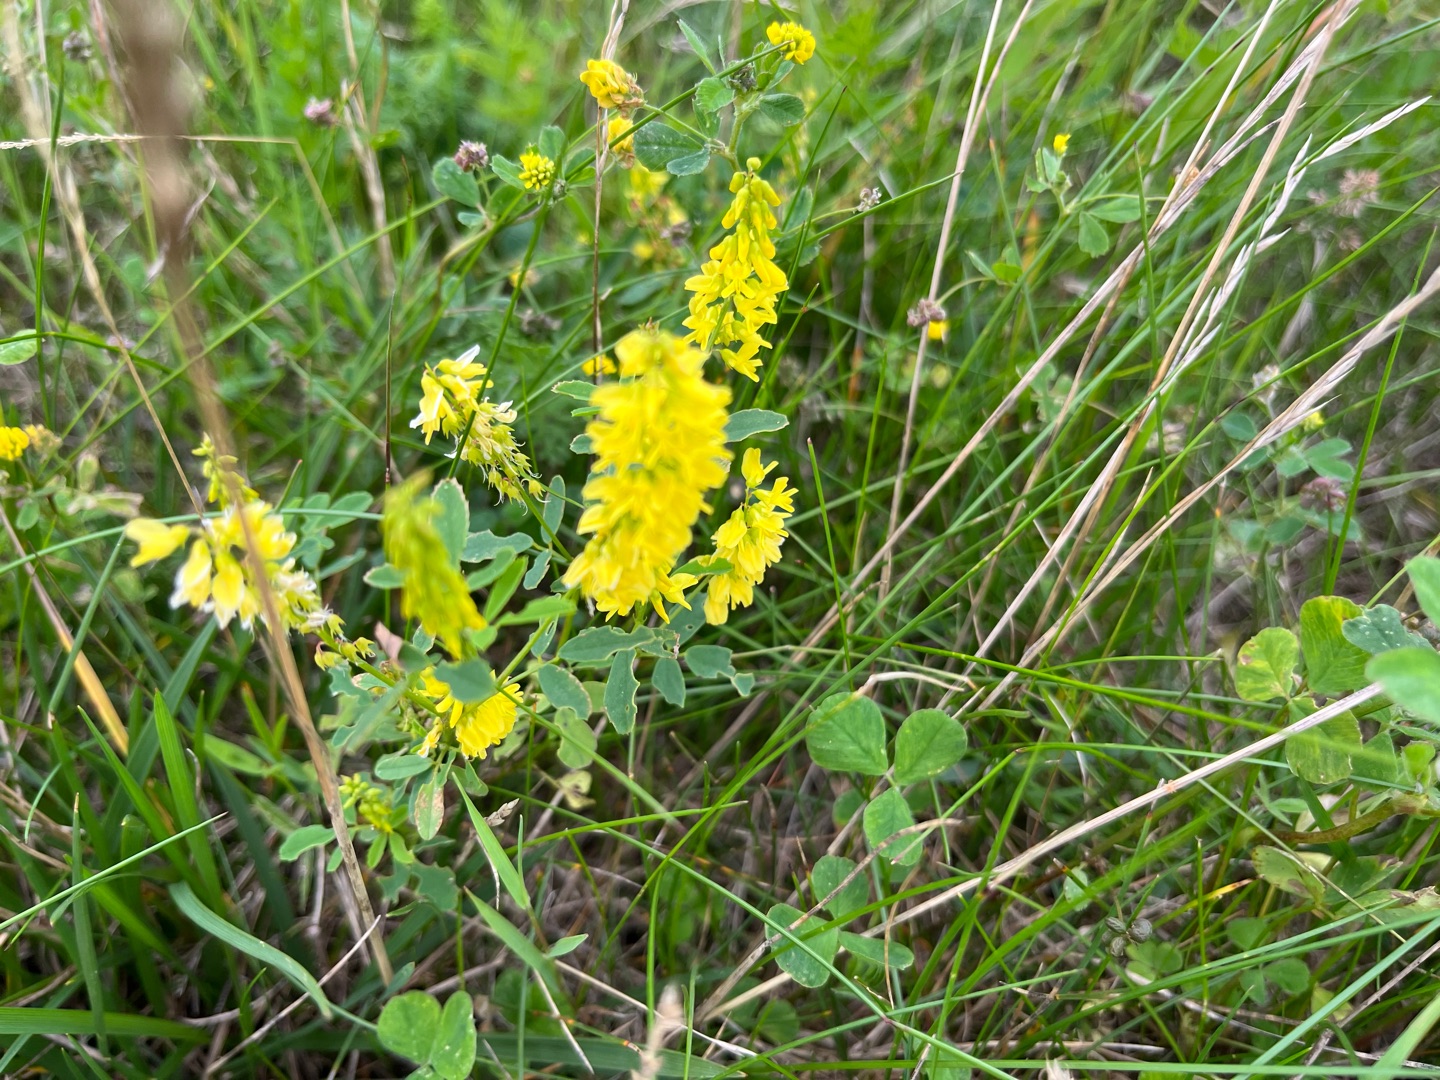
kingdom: Plantae
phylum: Tracheophyta
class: Magnoliopsida
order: Fabales
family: Fabaceae
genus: Melilotus
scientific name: Melilotus officinalis
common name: Mark-stenkløver
